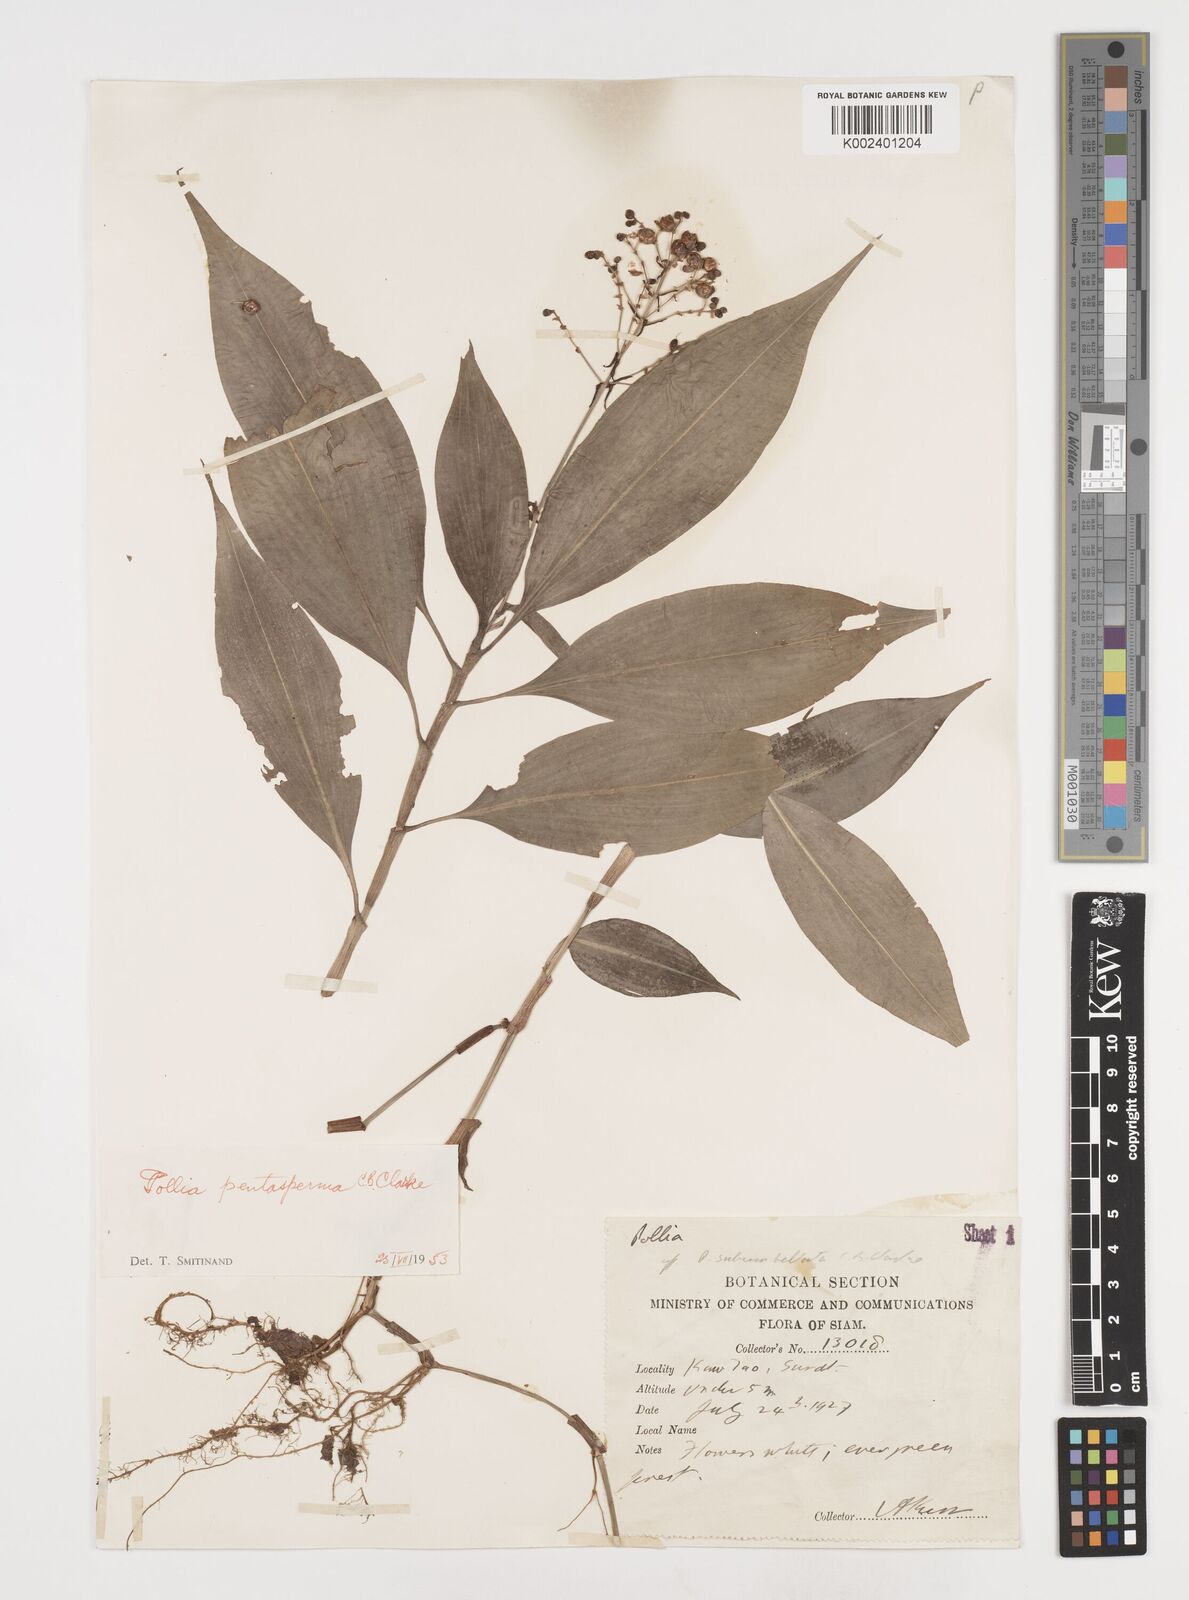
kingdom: Plantae
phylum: Tracheophyta
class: Liliopsida
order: Commelinales
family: Commelinaceae
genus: Pollia
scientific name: Pollia secundiflora
